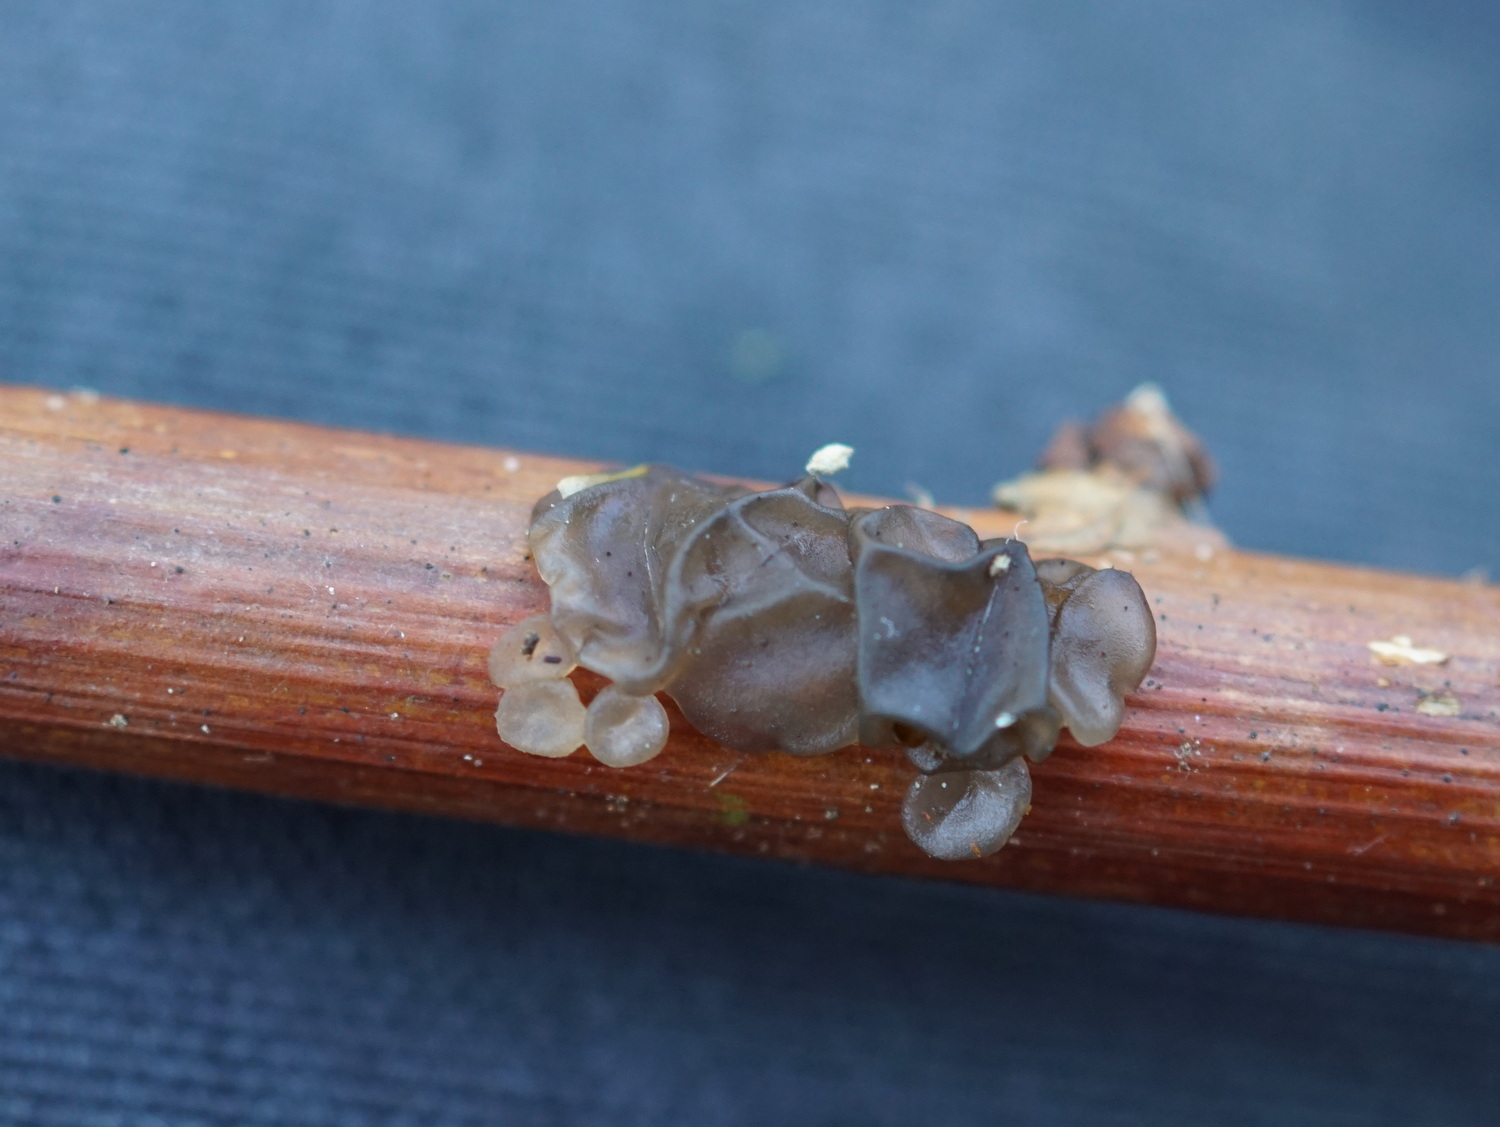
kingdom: Fungi
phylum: Basidiomycota
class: Tremellomycetes
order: Tremellales
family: Exidiaceae
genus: Exidia
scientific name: Exidia
